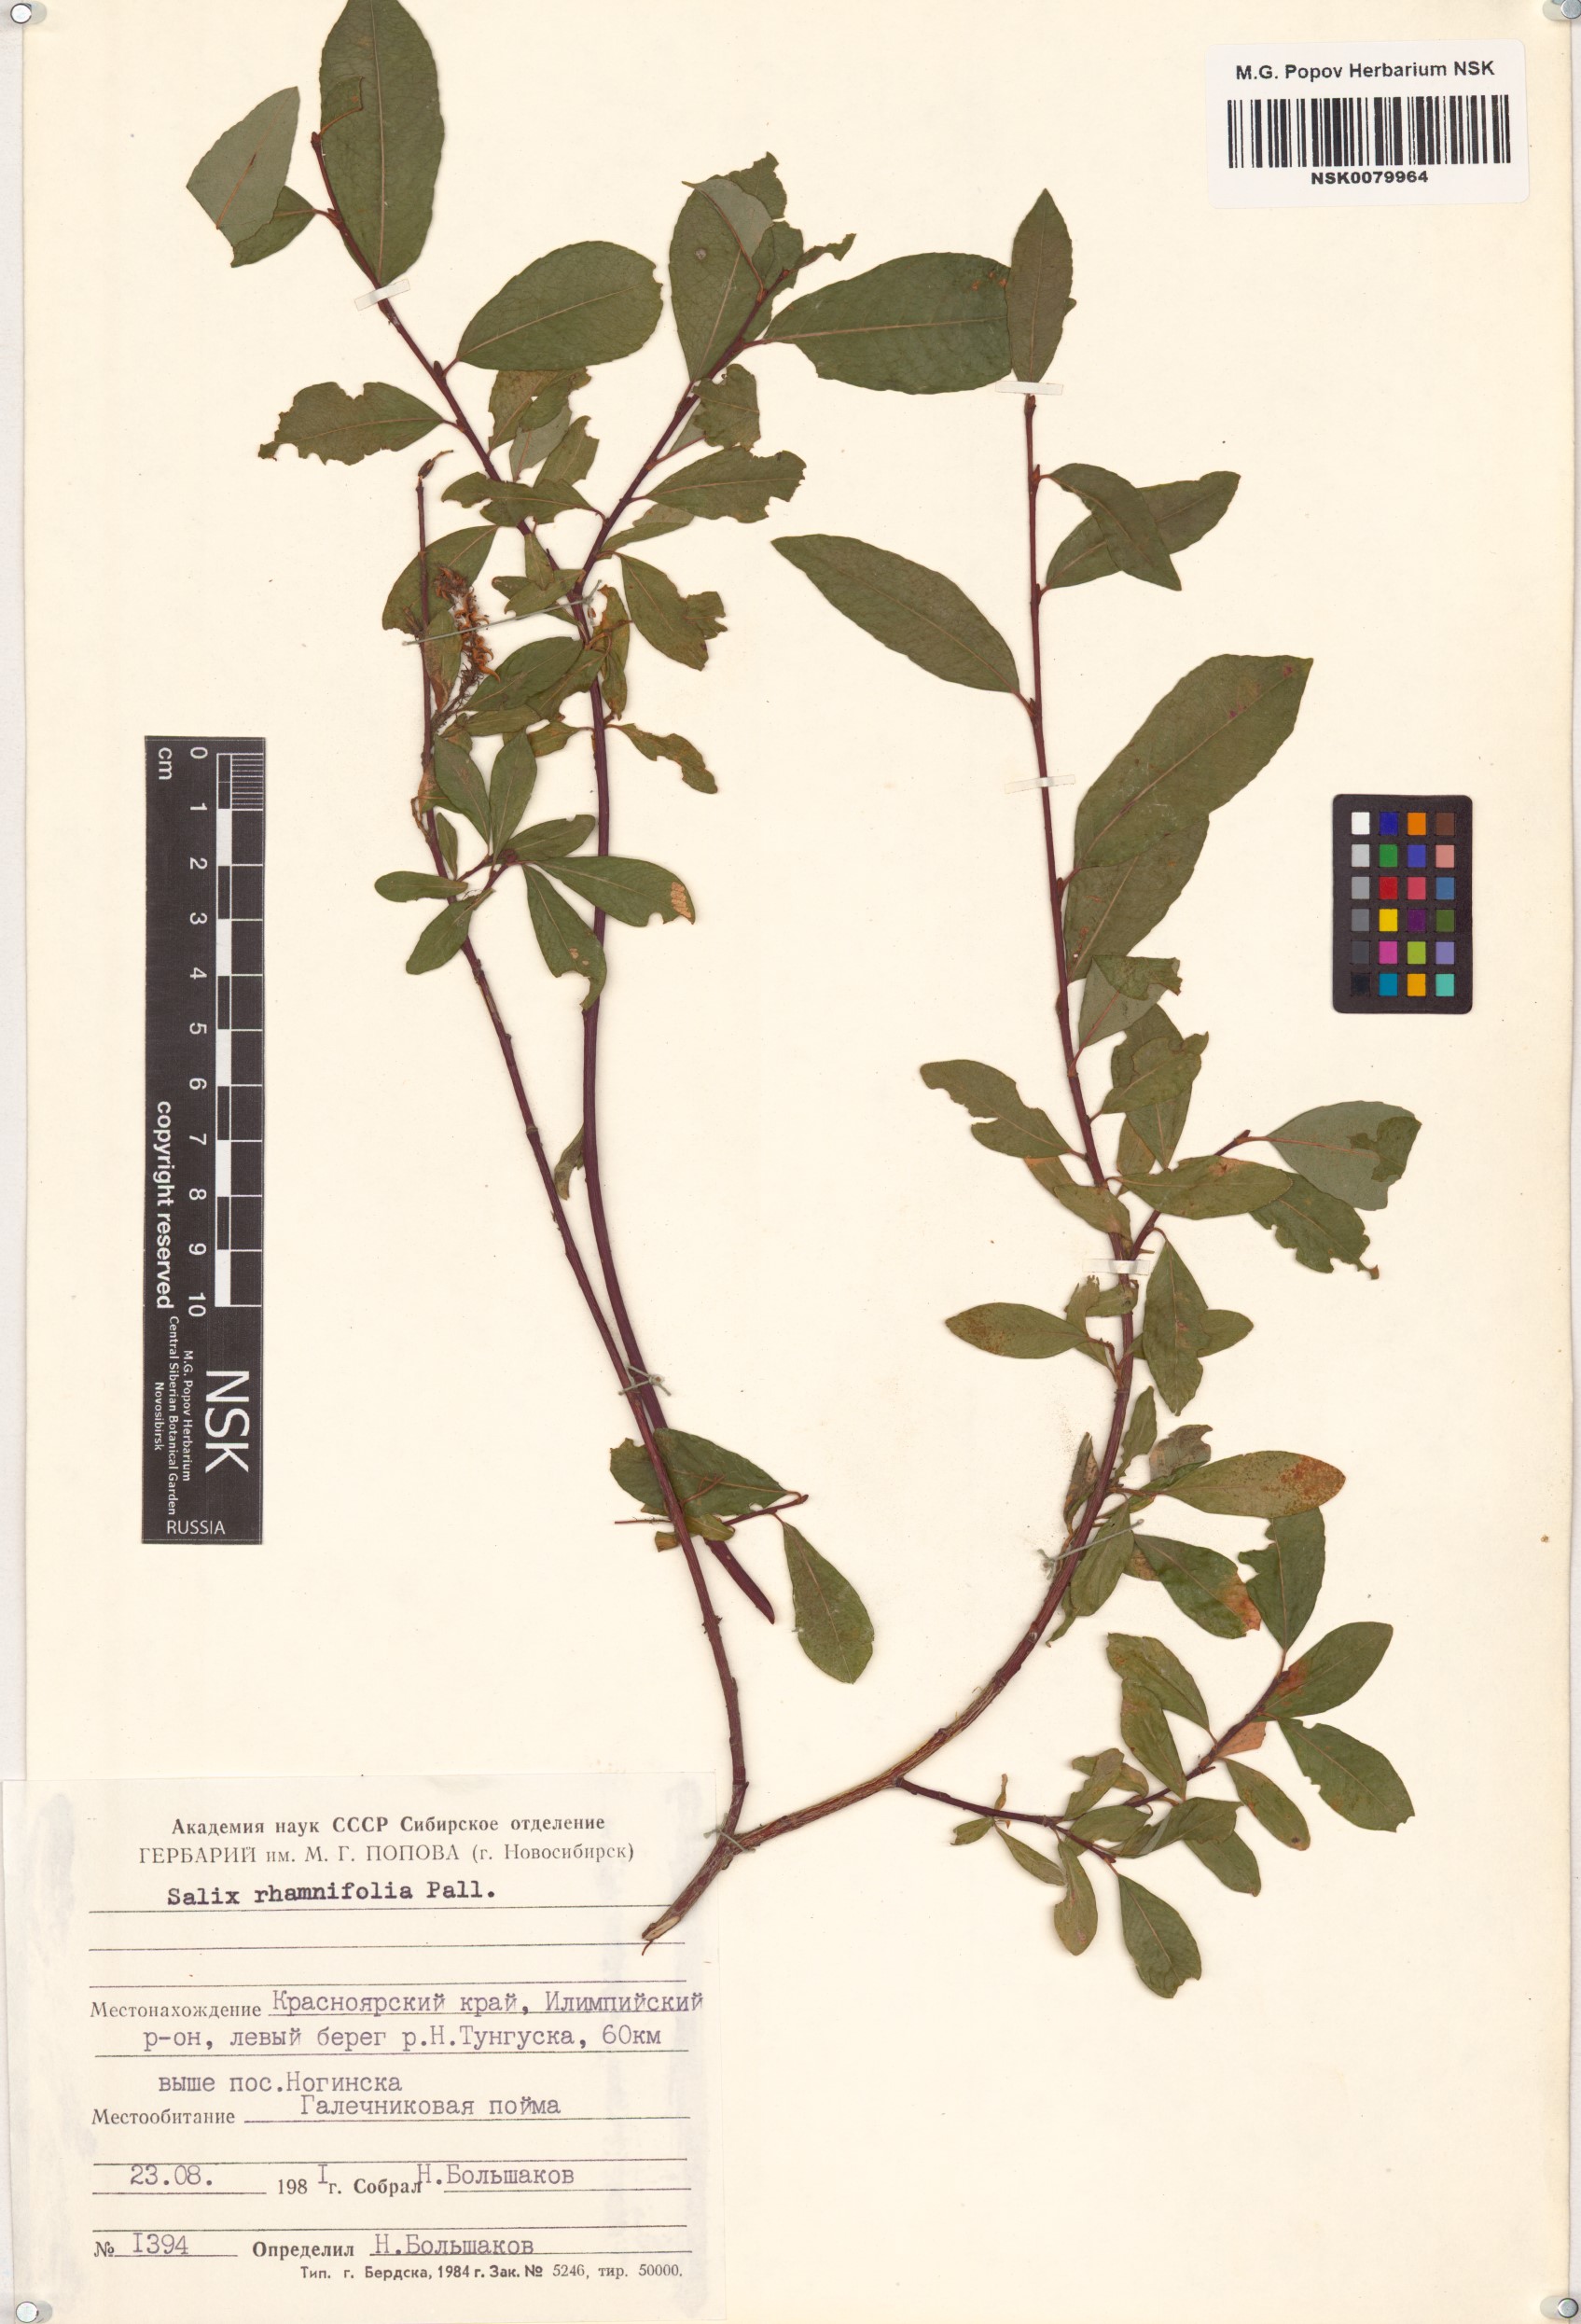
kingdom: Plantae
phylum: Tracheophyta
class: Magnoliopsida
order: Malpighiales
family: Salicaceae
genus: Salix
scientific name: Salix rhamnifolia
